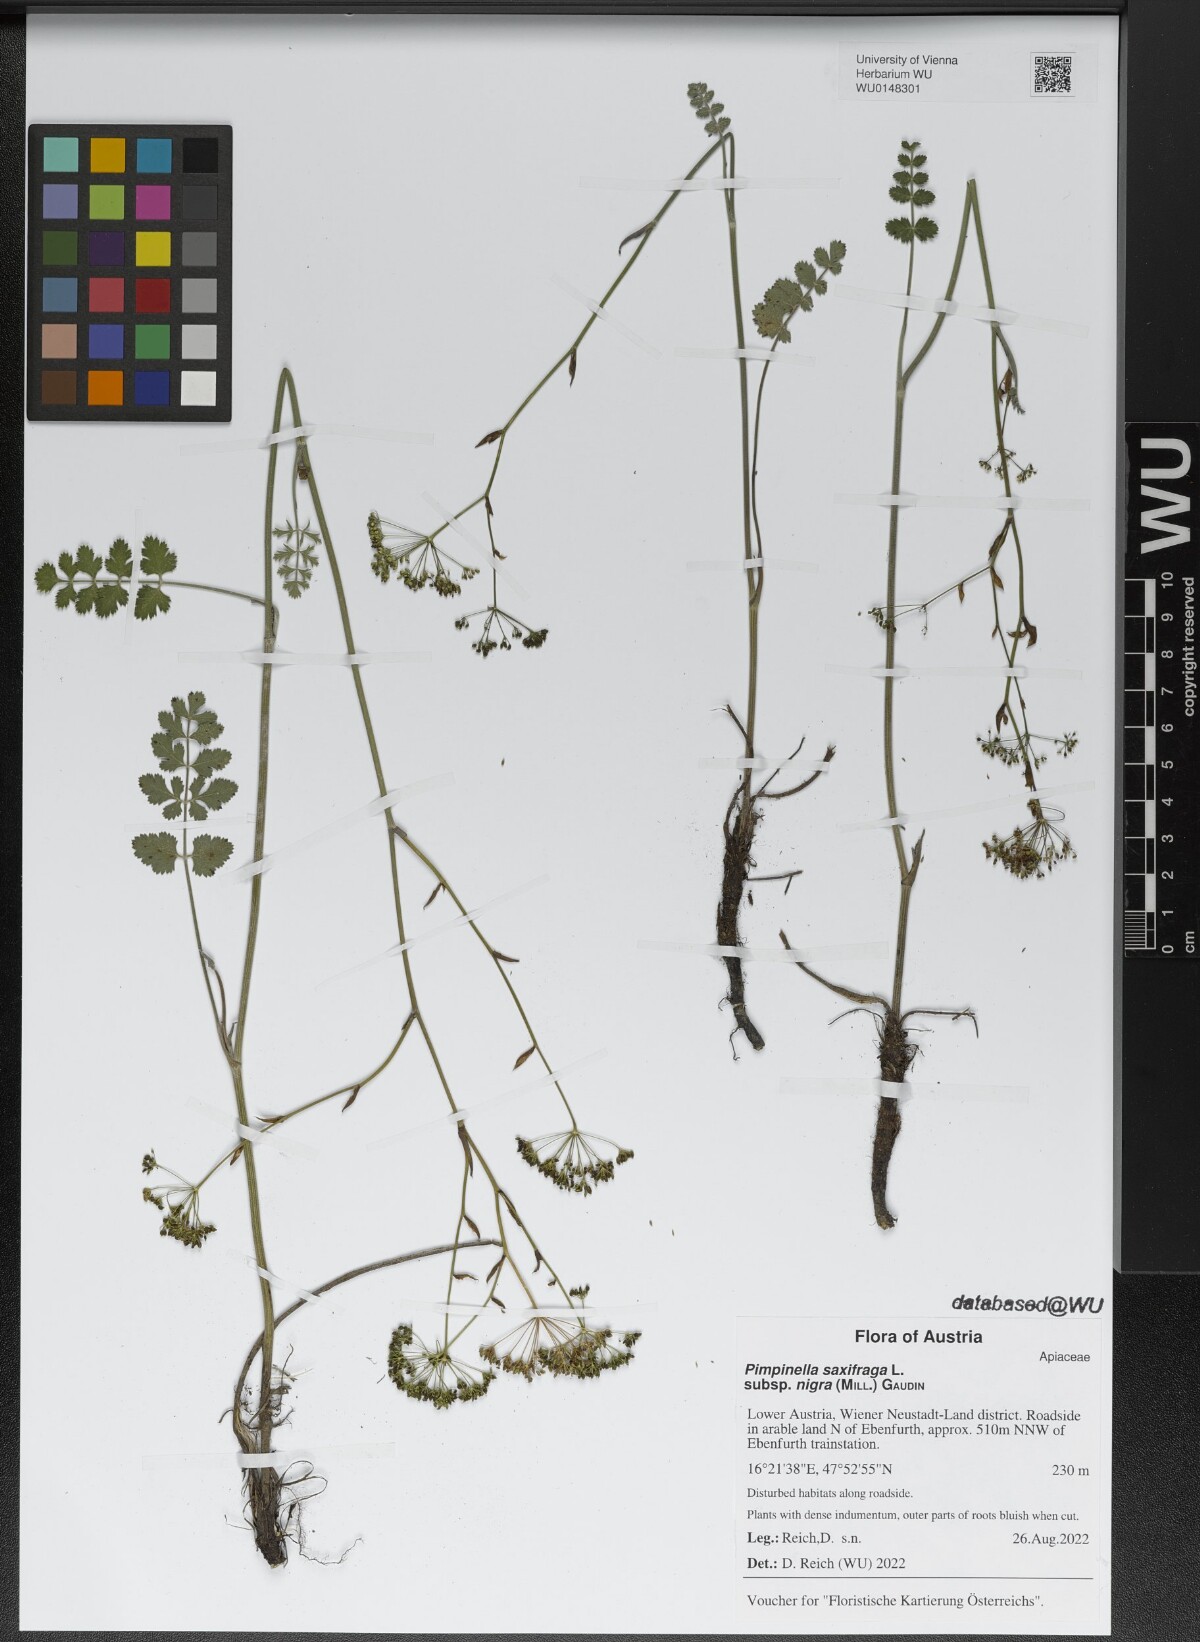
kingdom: Plantae
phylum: Tracheophyta
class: Magnoliopsida
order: Apiales
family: Apiaceae
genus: Pimpinella
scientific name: Pimpinella nigra
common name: Black pimpinella
